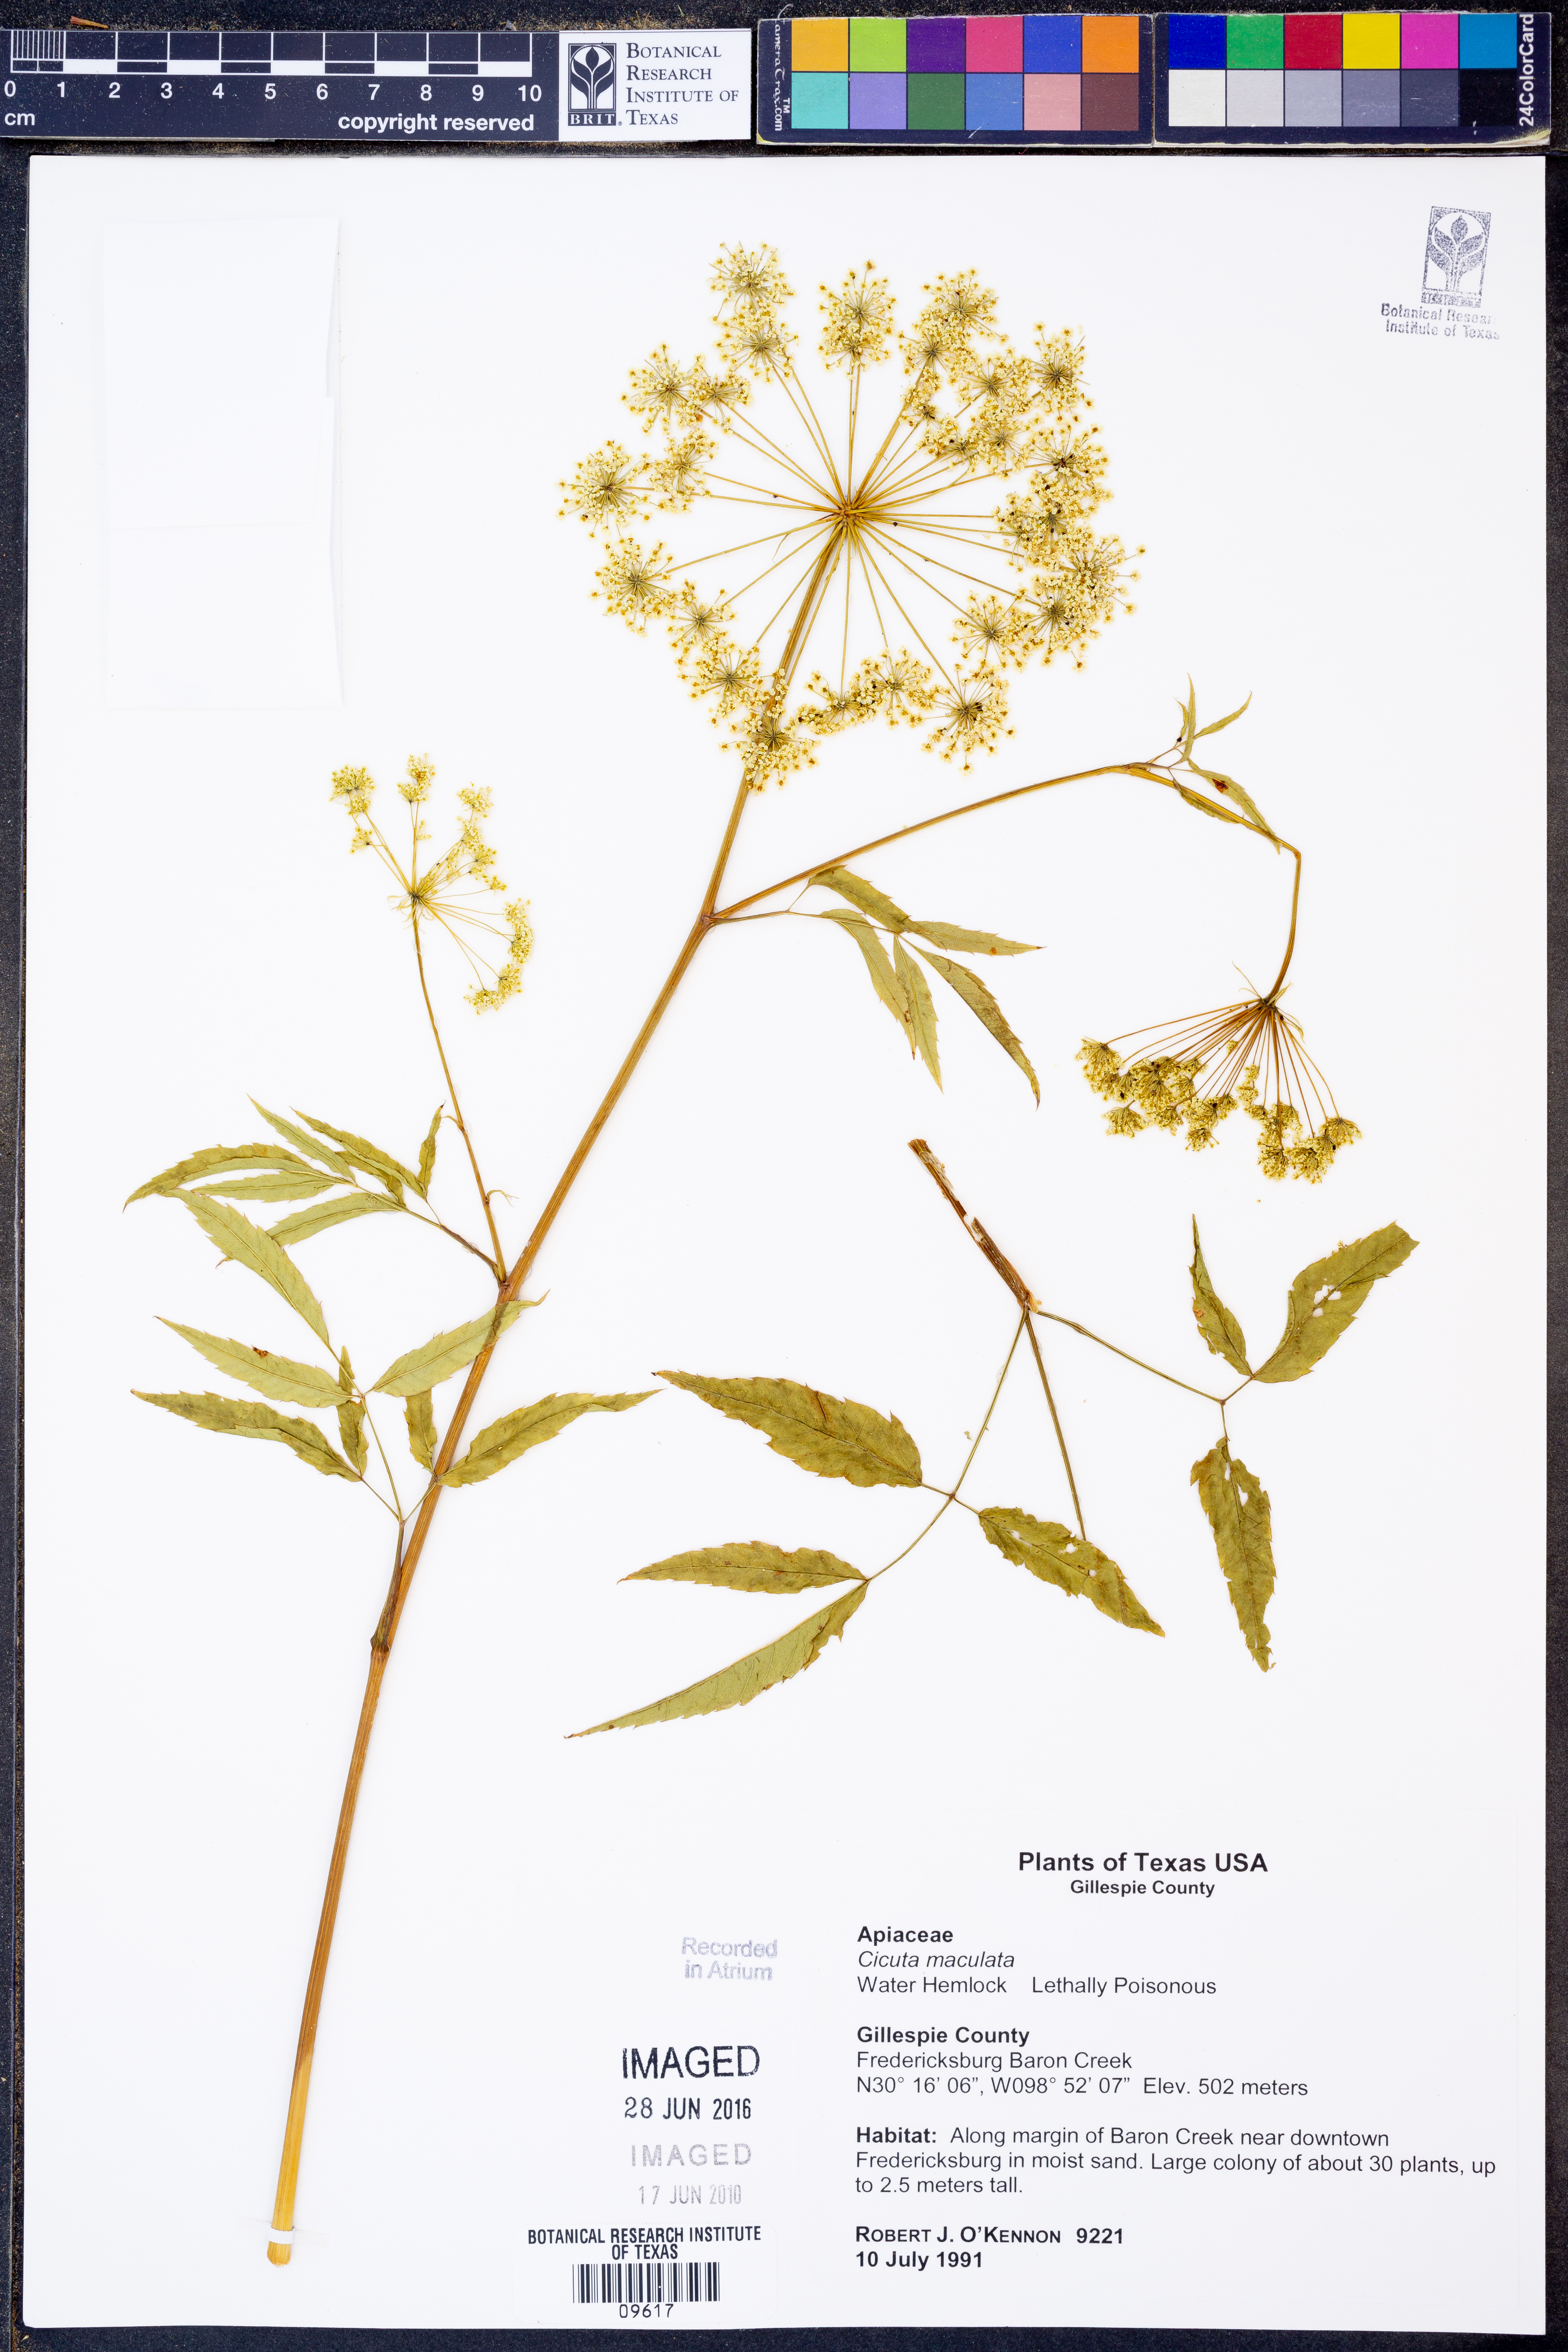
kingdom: Plantae
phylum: Tracheophyta
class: Magnoliopsida
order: Apiales
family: Apiaceae
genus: Cicuta
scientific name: Cicuta maculata
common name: Spotted cowbane
